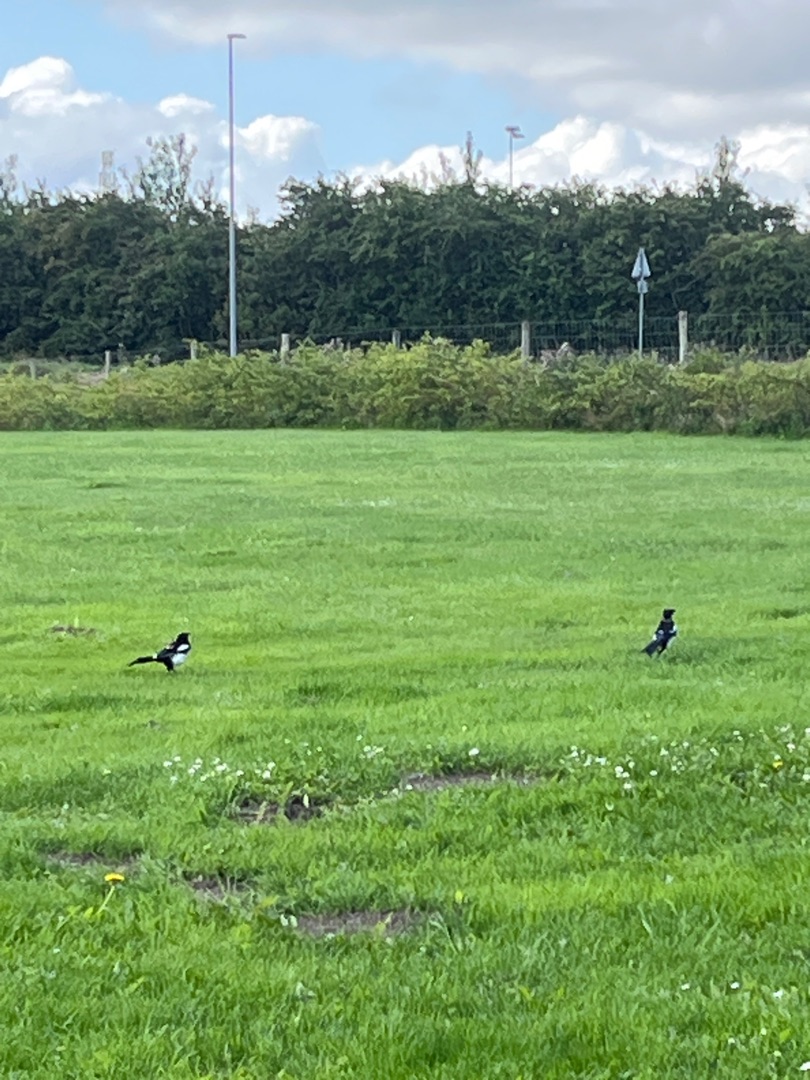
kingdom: Animalia
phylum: Chordata
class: Aves
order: Passeriformes
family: Corvidae
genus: Pica
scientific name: Pica pica
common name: Husskade
